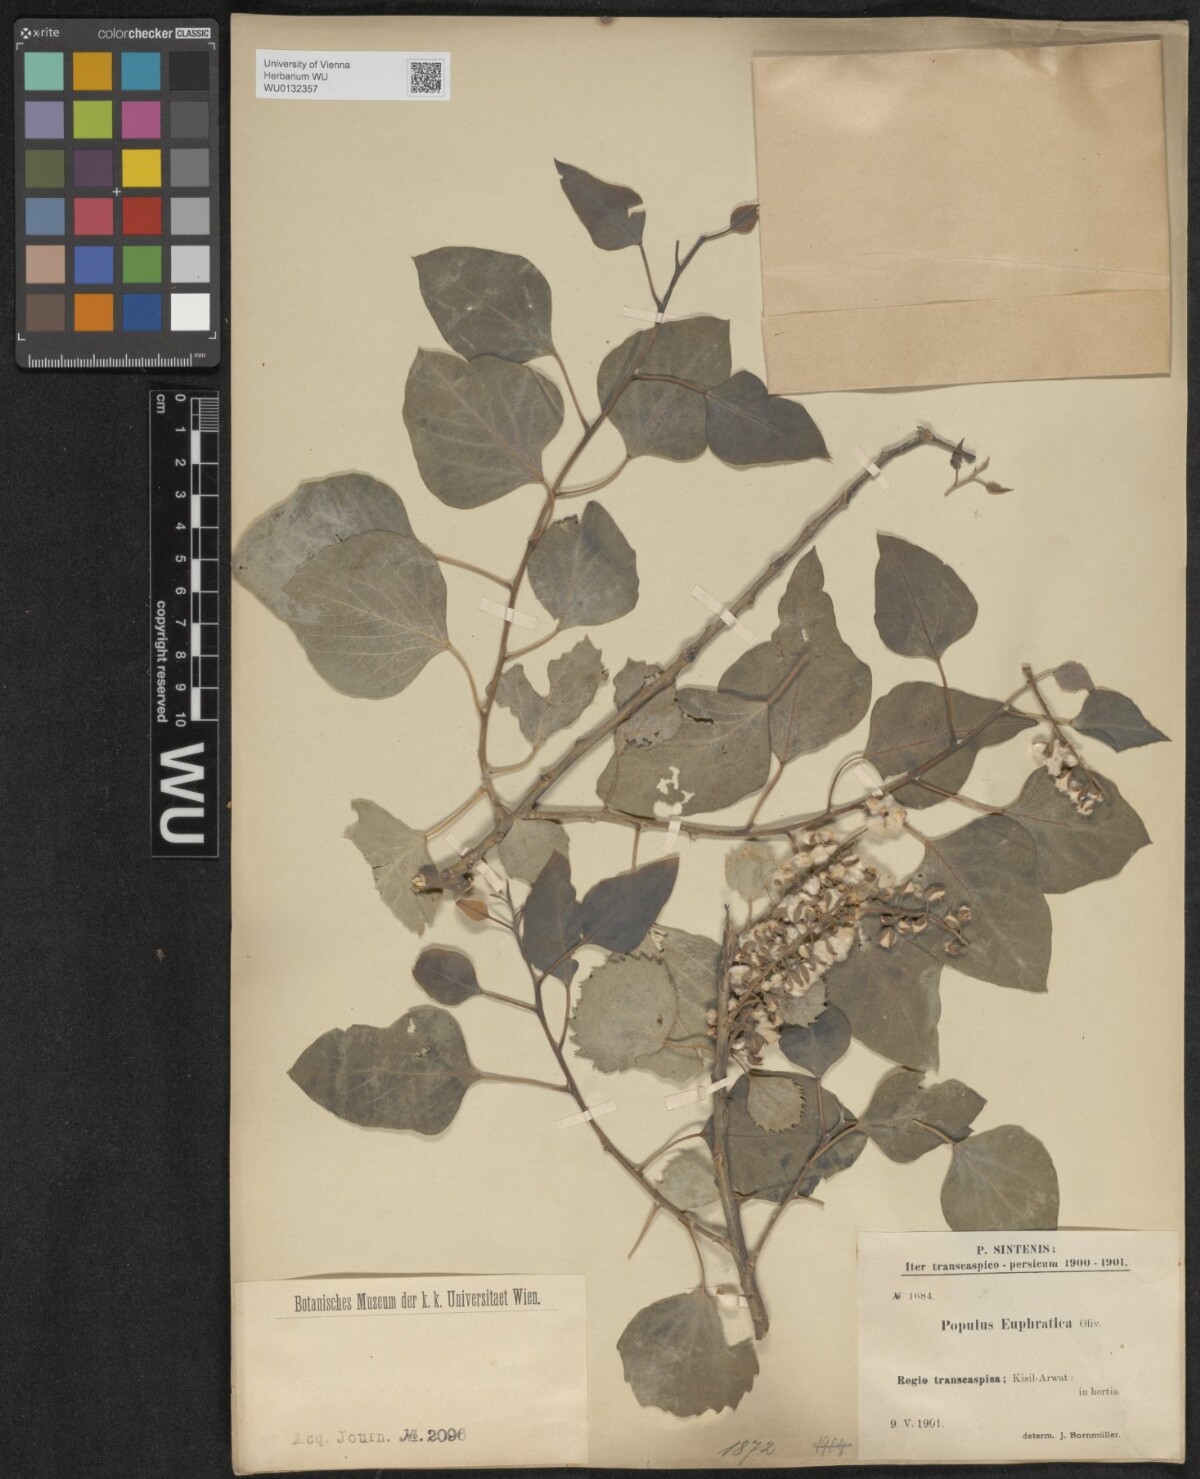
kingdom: Plantae
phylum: Tracheophyta
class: Magnoliopsida
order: Malpighiales
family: Salicaceae
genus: Populus
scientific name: Populus euphratica
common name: Euphrates poplar
